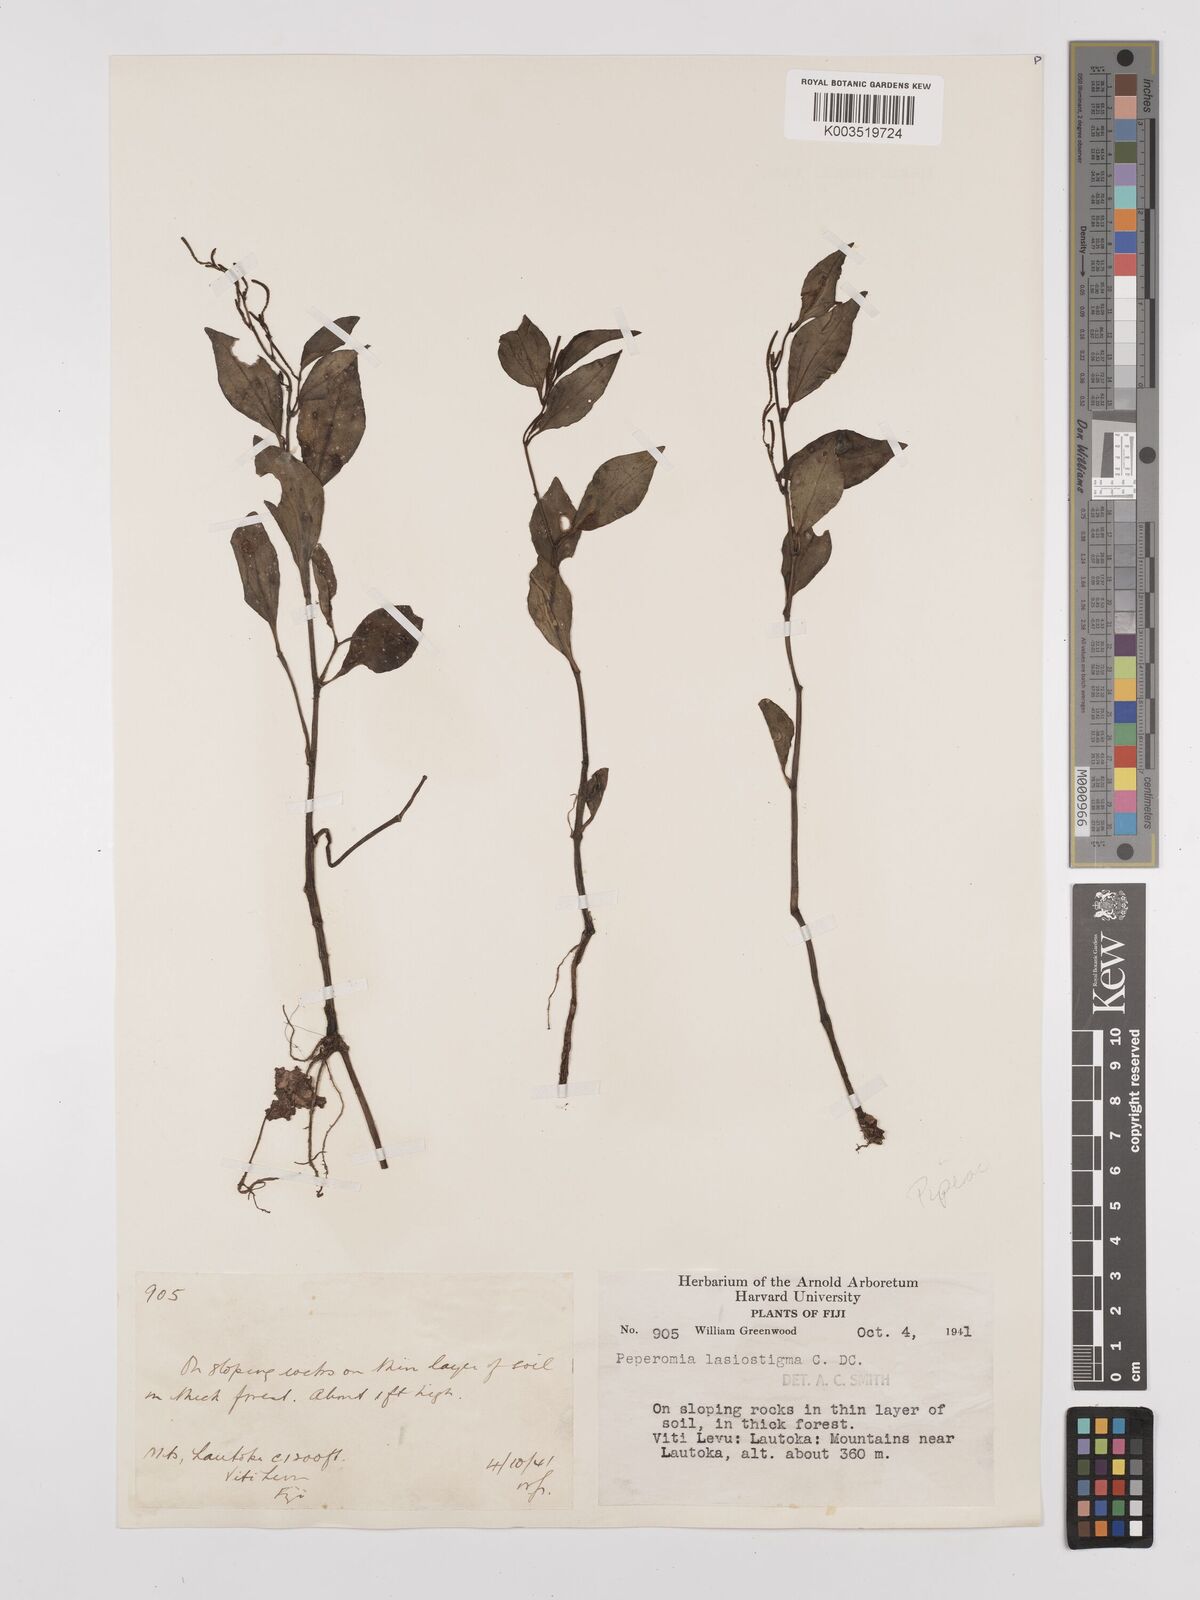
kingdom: Plantae
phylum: Tracheophyta
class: Magnoliopsida
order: Piperales
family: Piperaceae
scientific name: Piperaceae
